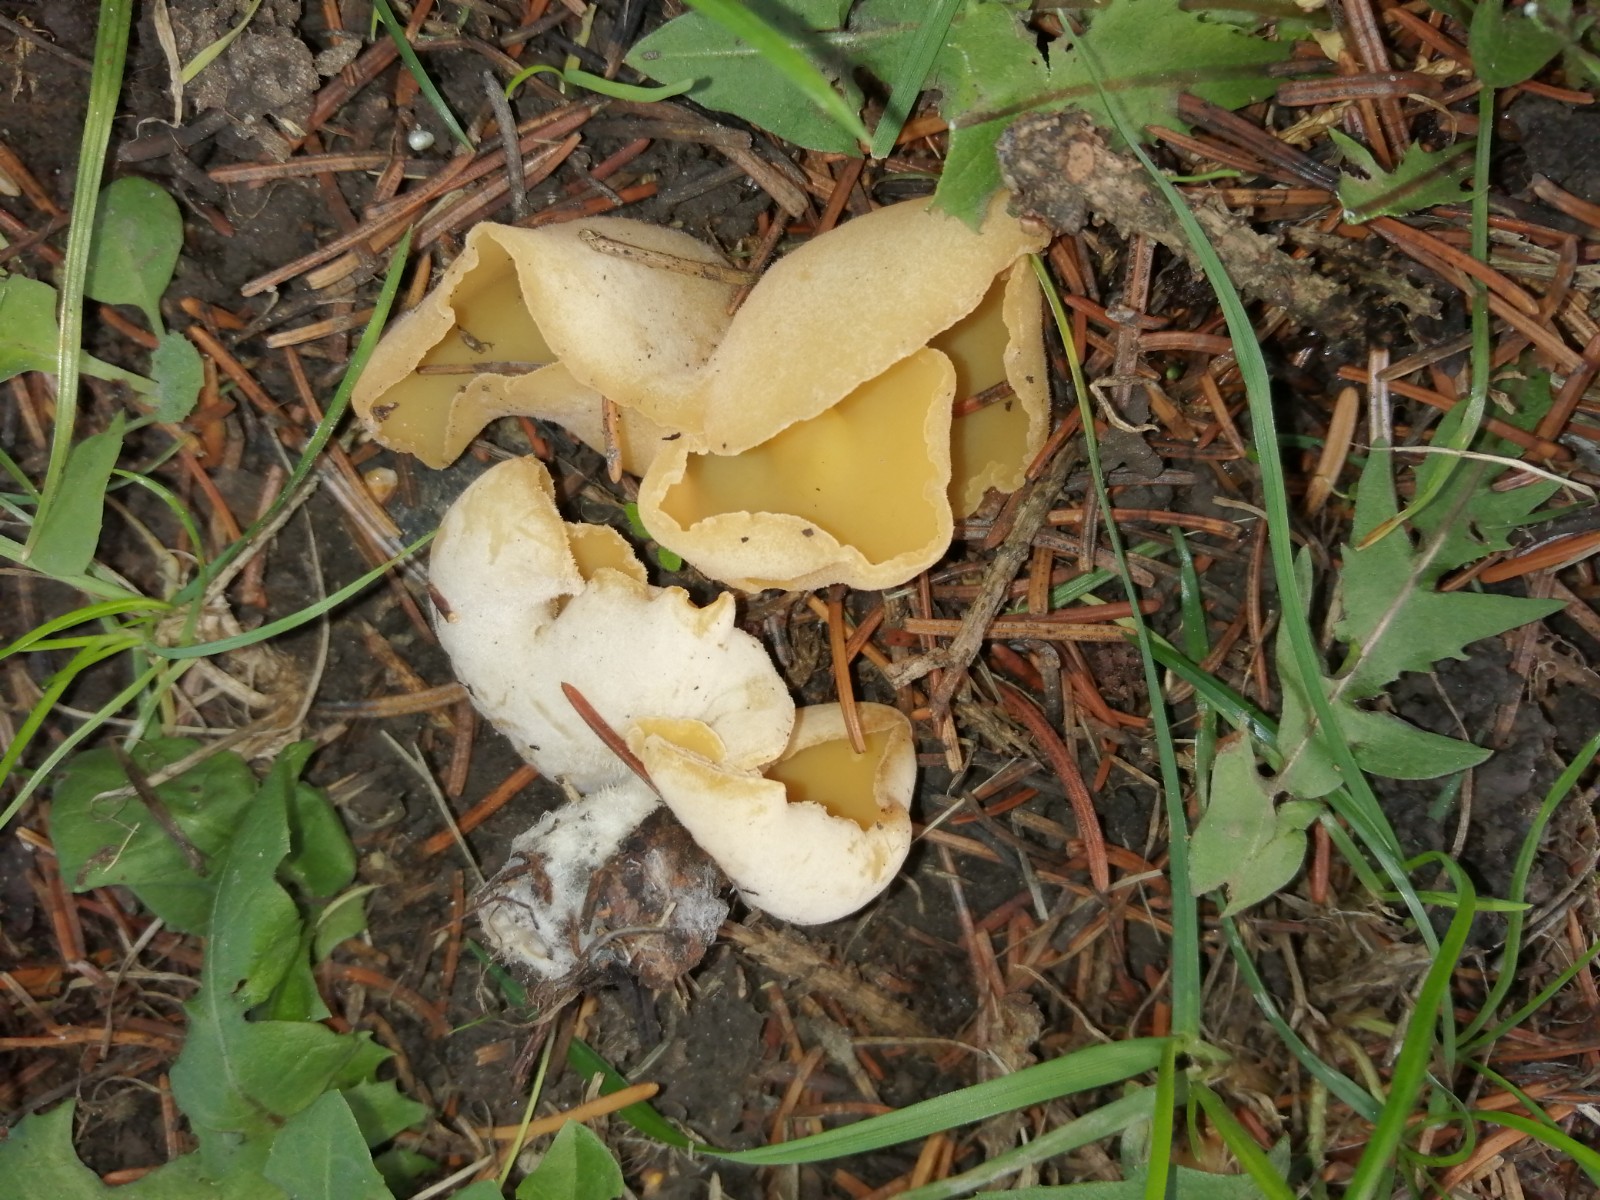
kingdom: Fungi
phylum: Ascomycota
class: Pezizomycetes
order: Pezizales
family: Pyronemataceae
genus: Sowerbyella
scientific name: Sowerbyella radiculata
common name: grøngul rodbæger
